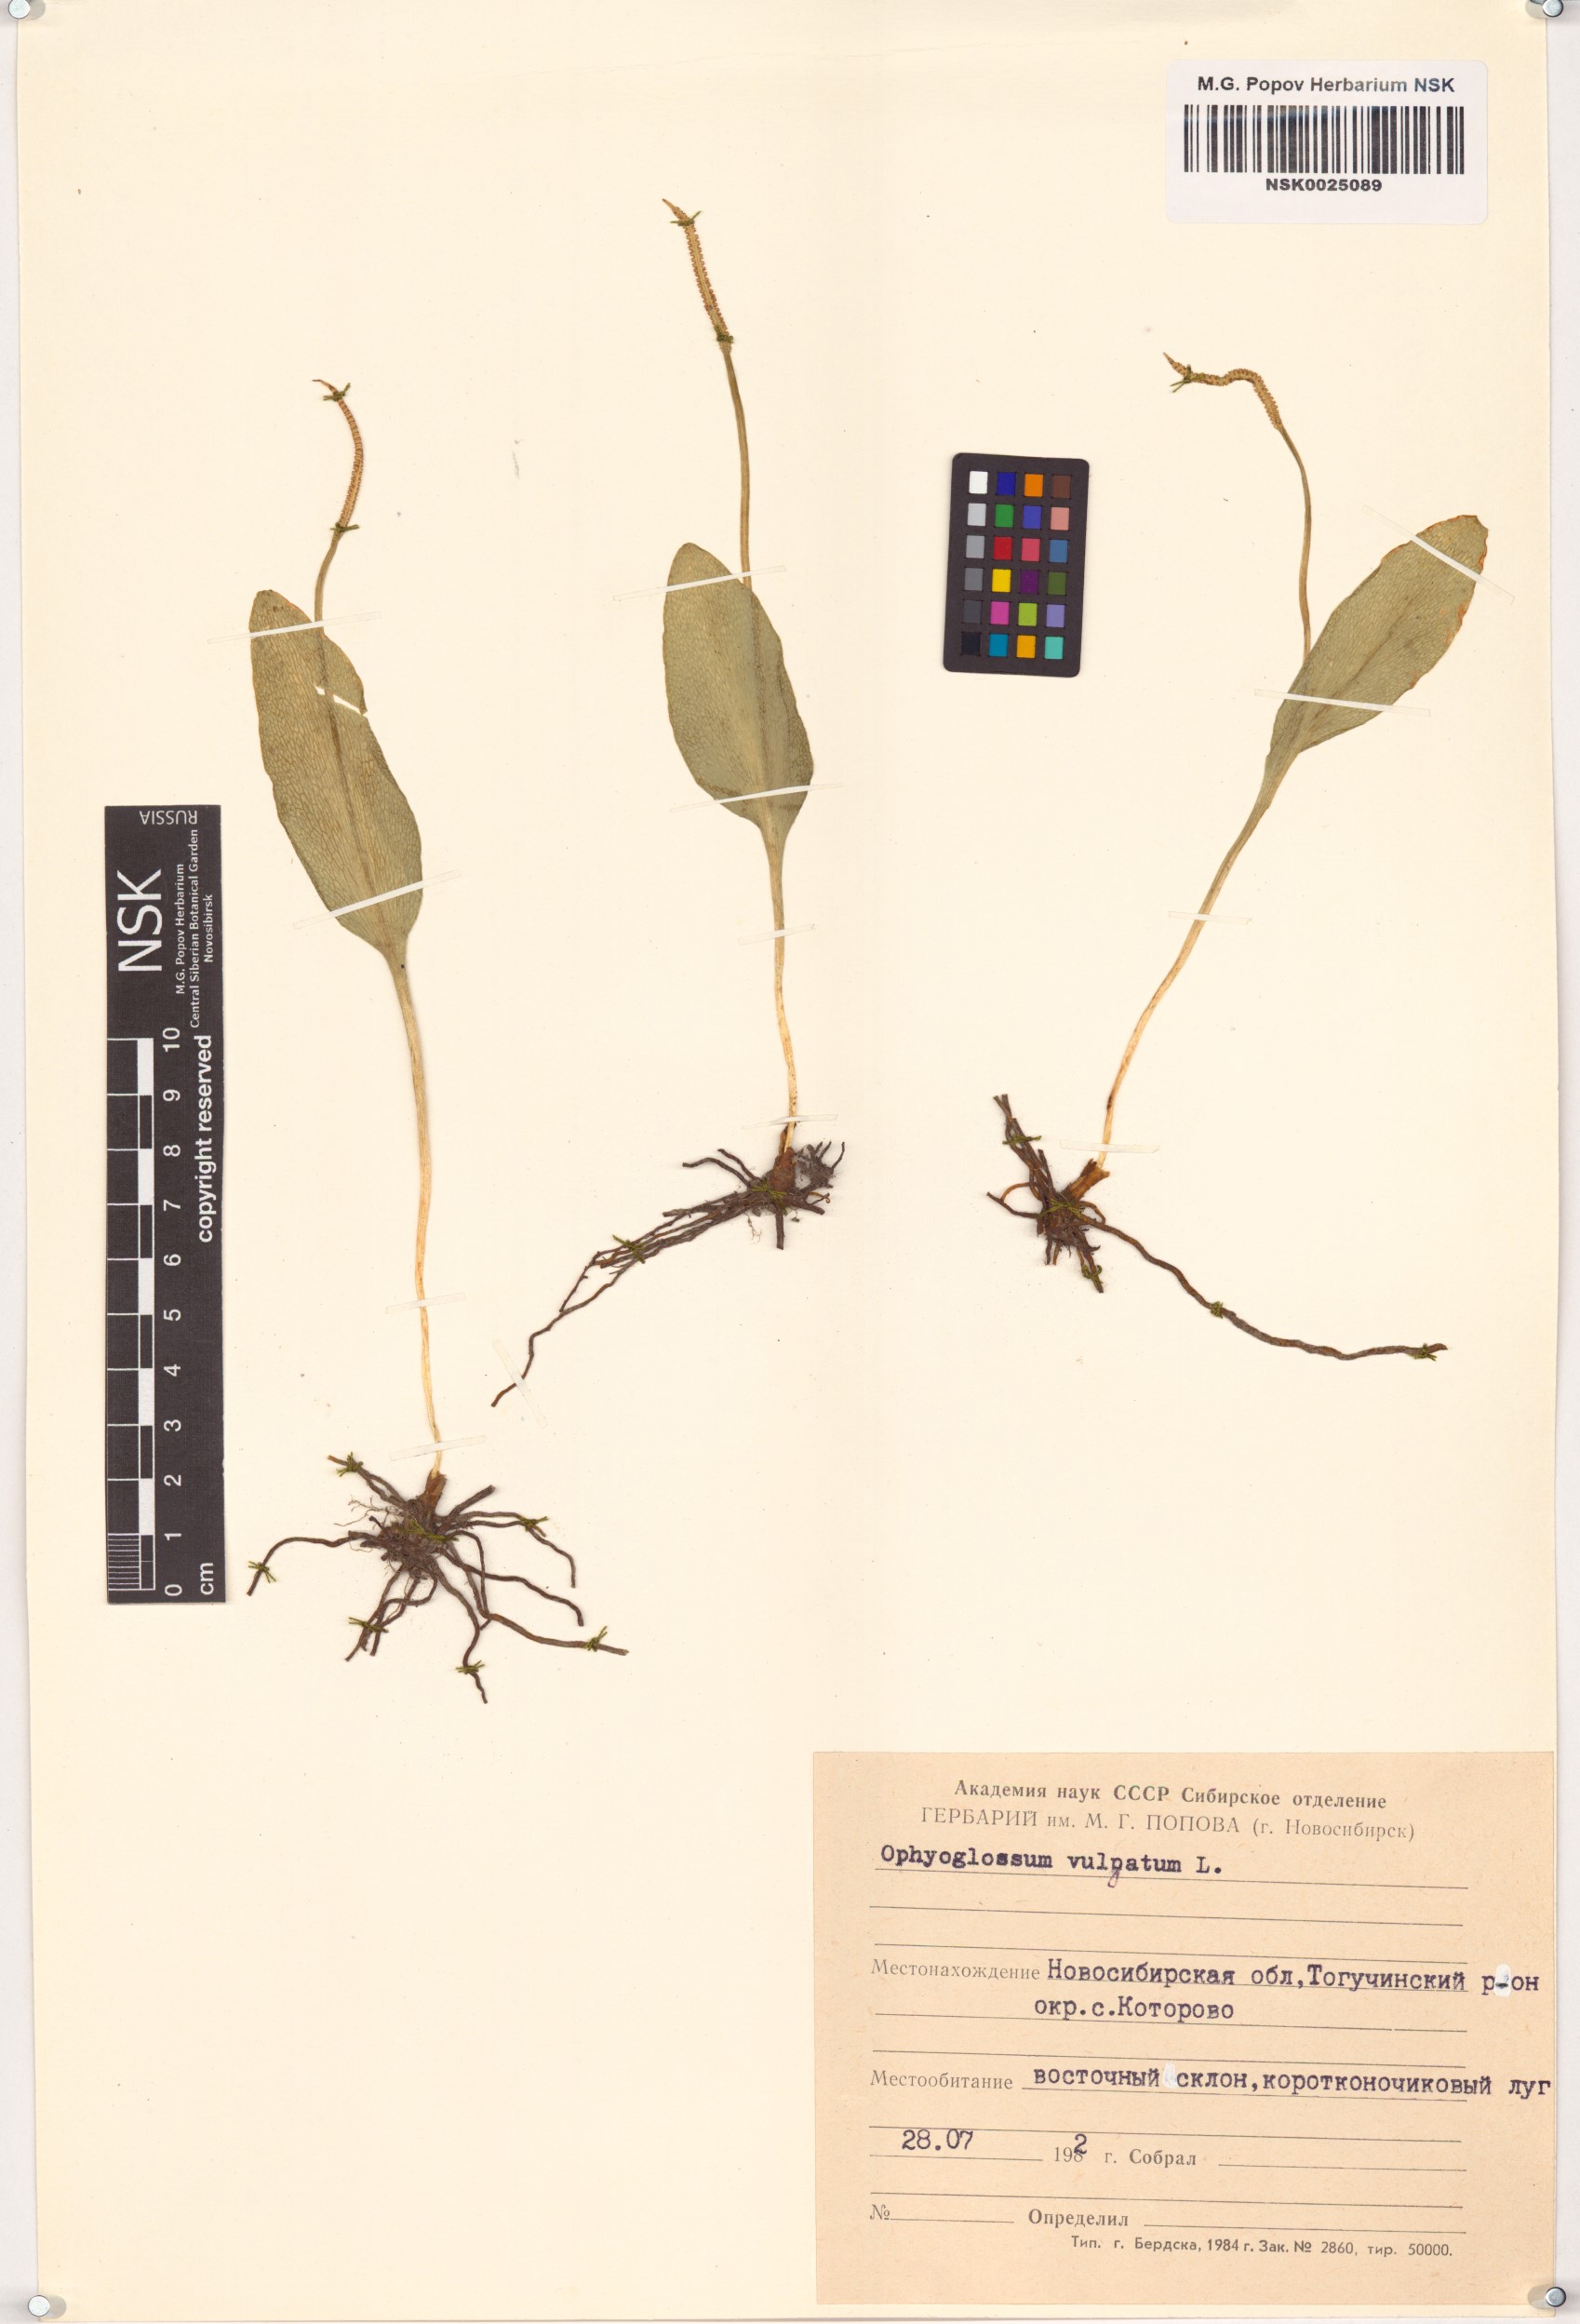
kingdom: Plantae
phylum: Tracheophyta
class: Polypodiopsida
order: Ophioglossales
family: Ophioglossaceae
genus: Ophioglossum
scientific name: Ophioglossum vulgatum
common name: Adder's-tongue
